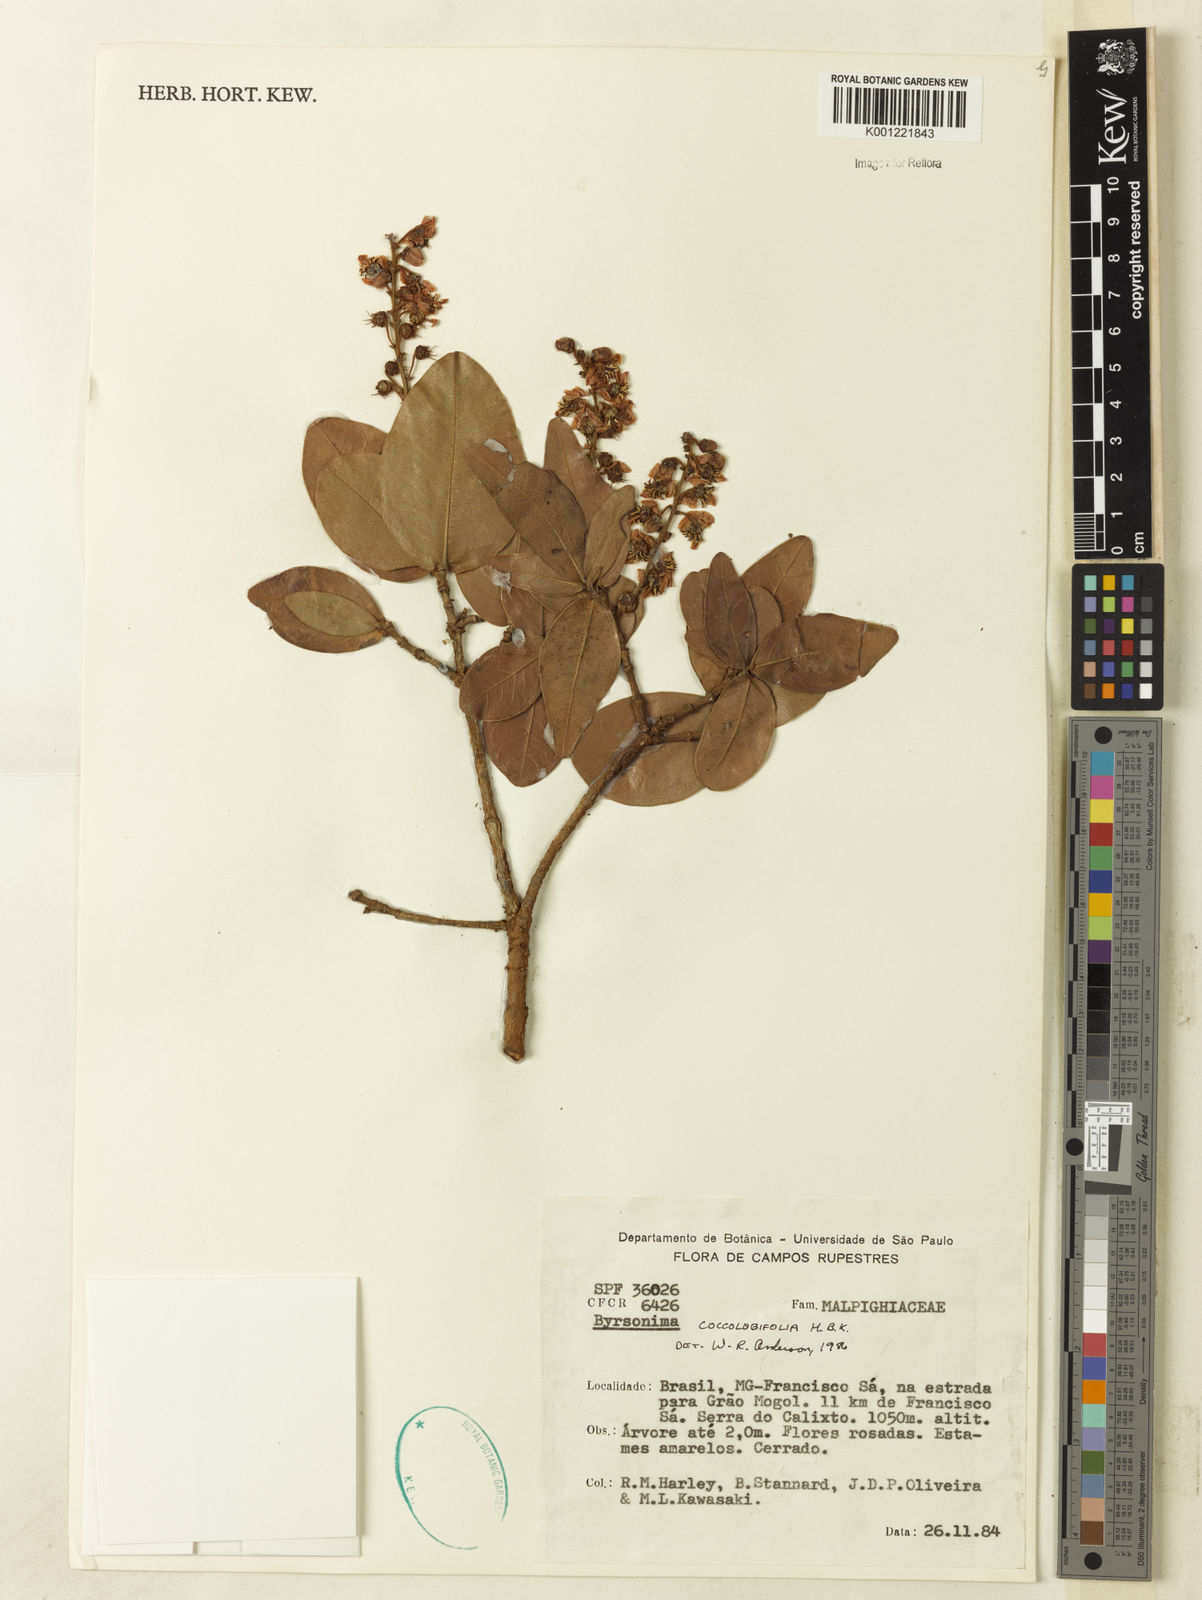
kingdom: Plantae
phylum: Tracheophyta
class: Magnoliopsida
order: Malpighiales
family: Malpighiaceae
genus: Byrsonima
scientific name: Byrsonima coccolobifolia
